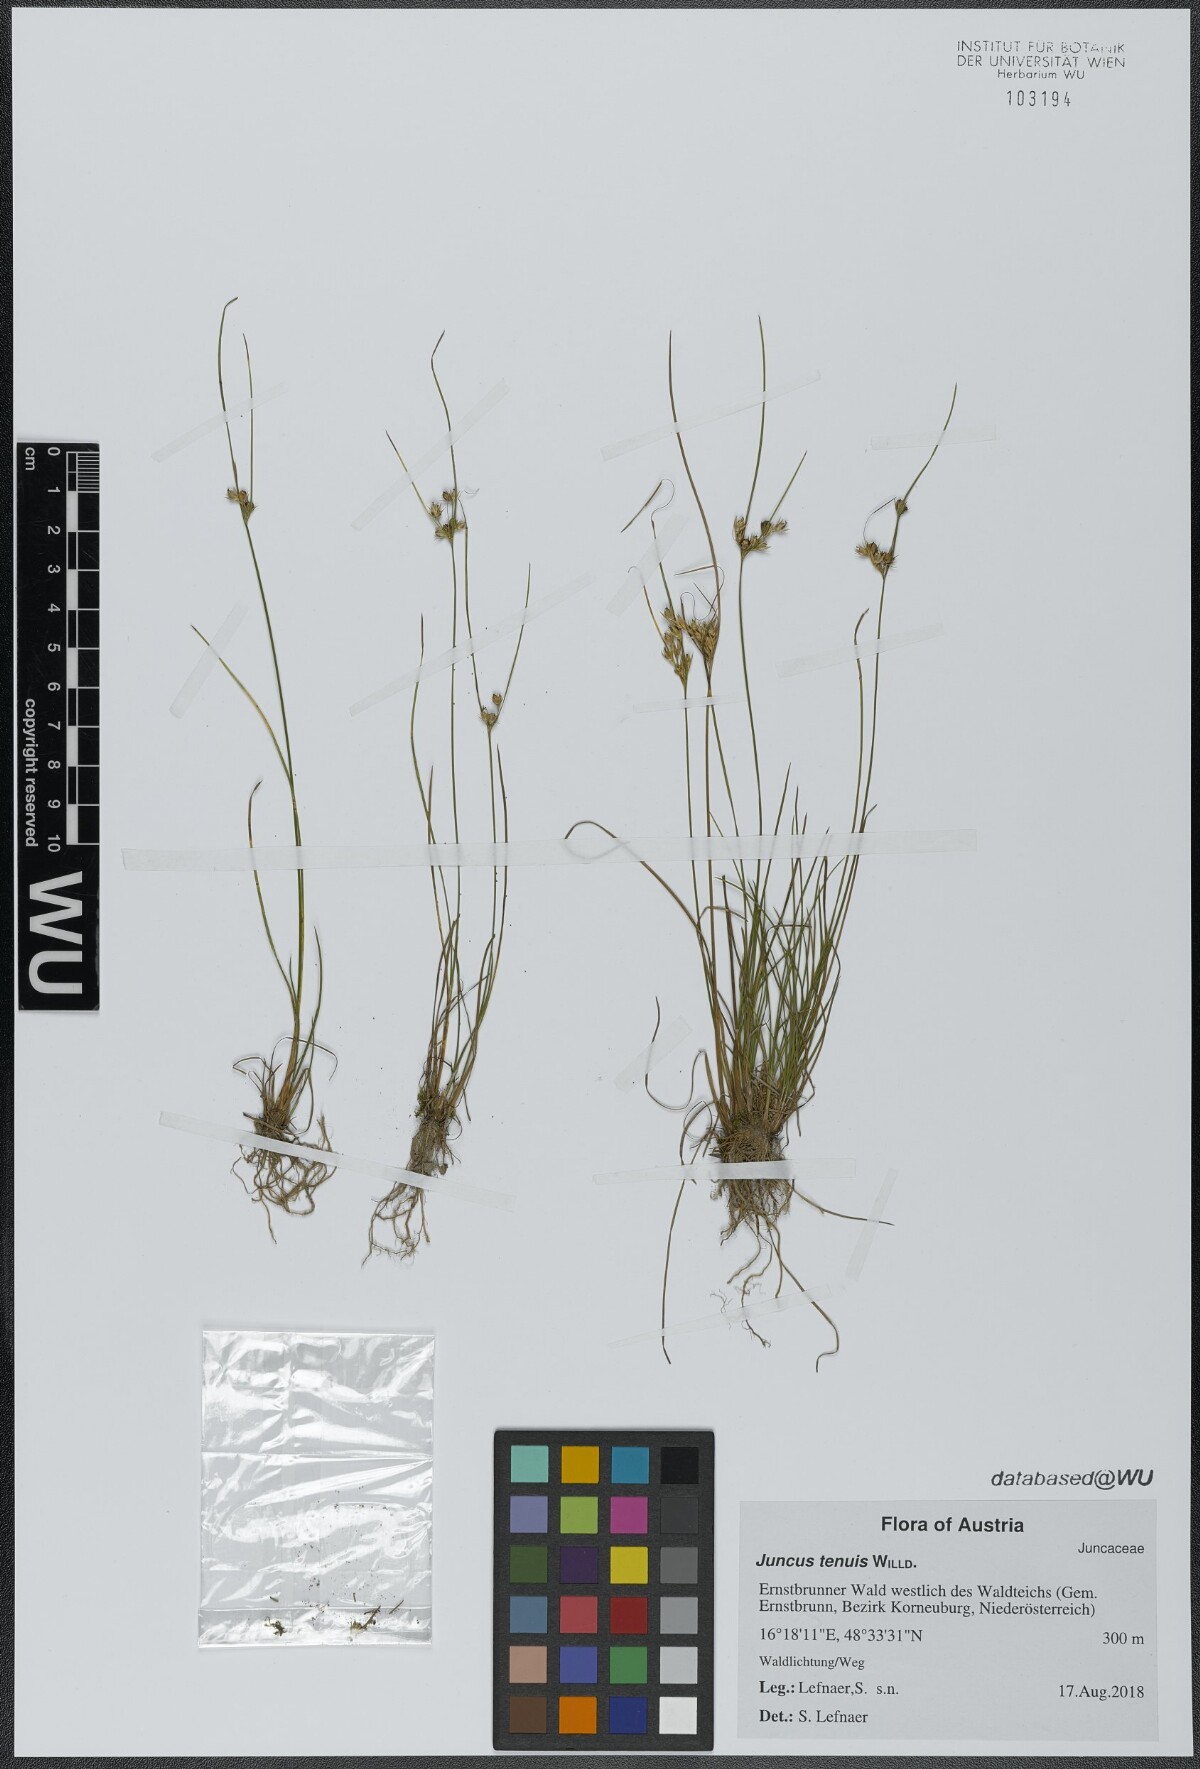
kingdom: Plantae
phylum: Tracheophyta
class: Liliopsida
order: Poales
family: Juncaceae
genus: Juncus
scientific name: Juncus tenuis
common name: Slender rush
